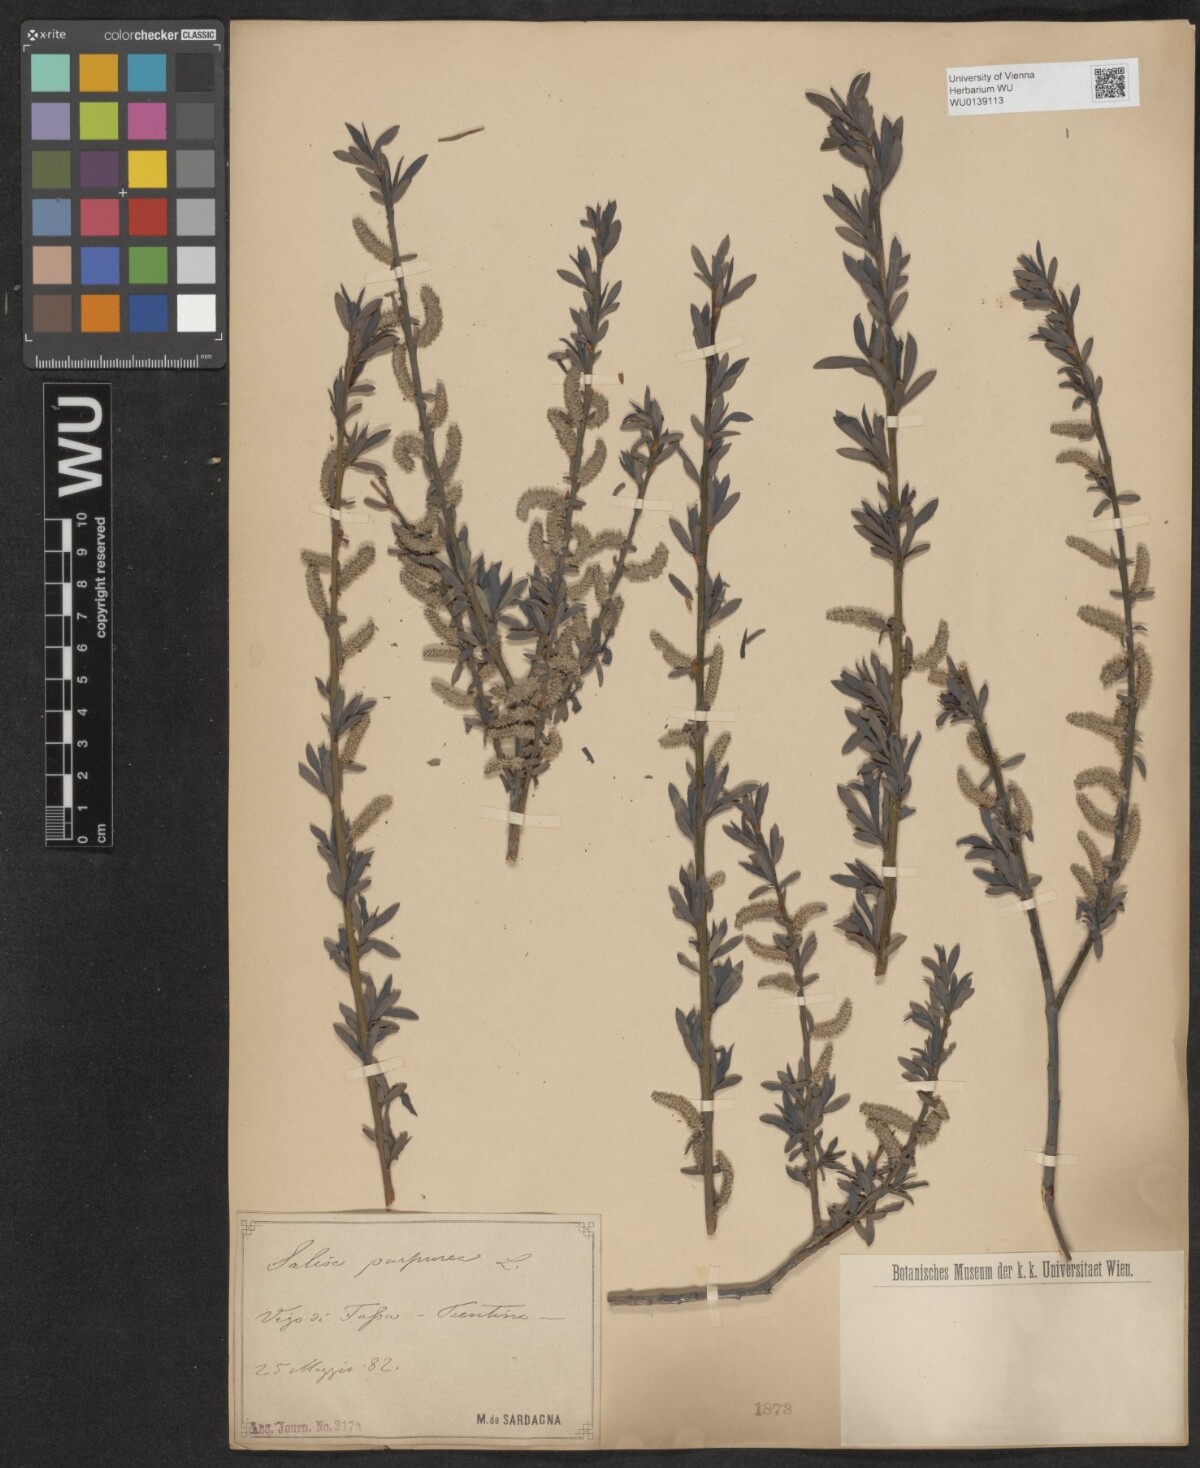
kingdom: Plantae
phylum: Tracheophyta
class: Magnoliopsida
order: Malpighiales
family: Salicaceae
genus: Salix
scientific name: Salix purpurea
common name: Purple willow
